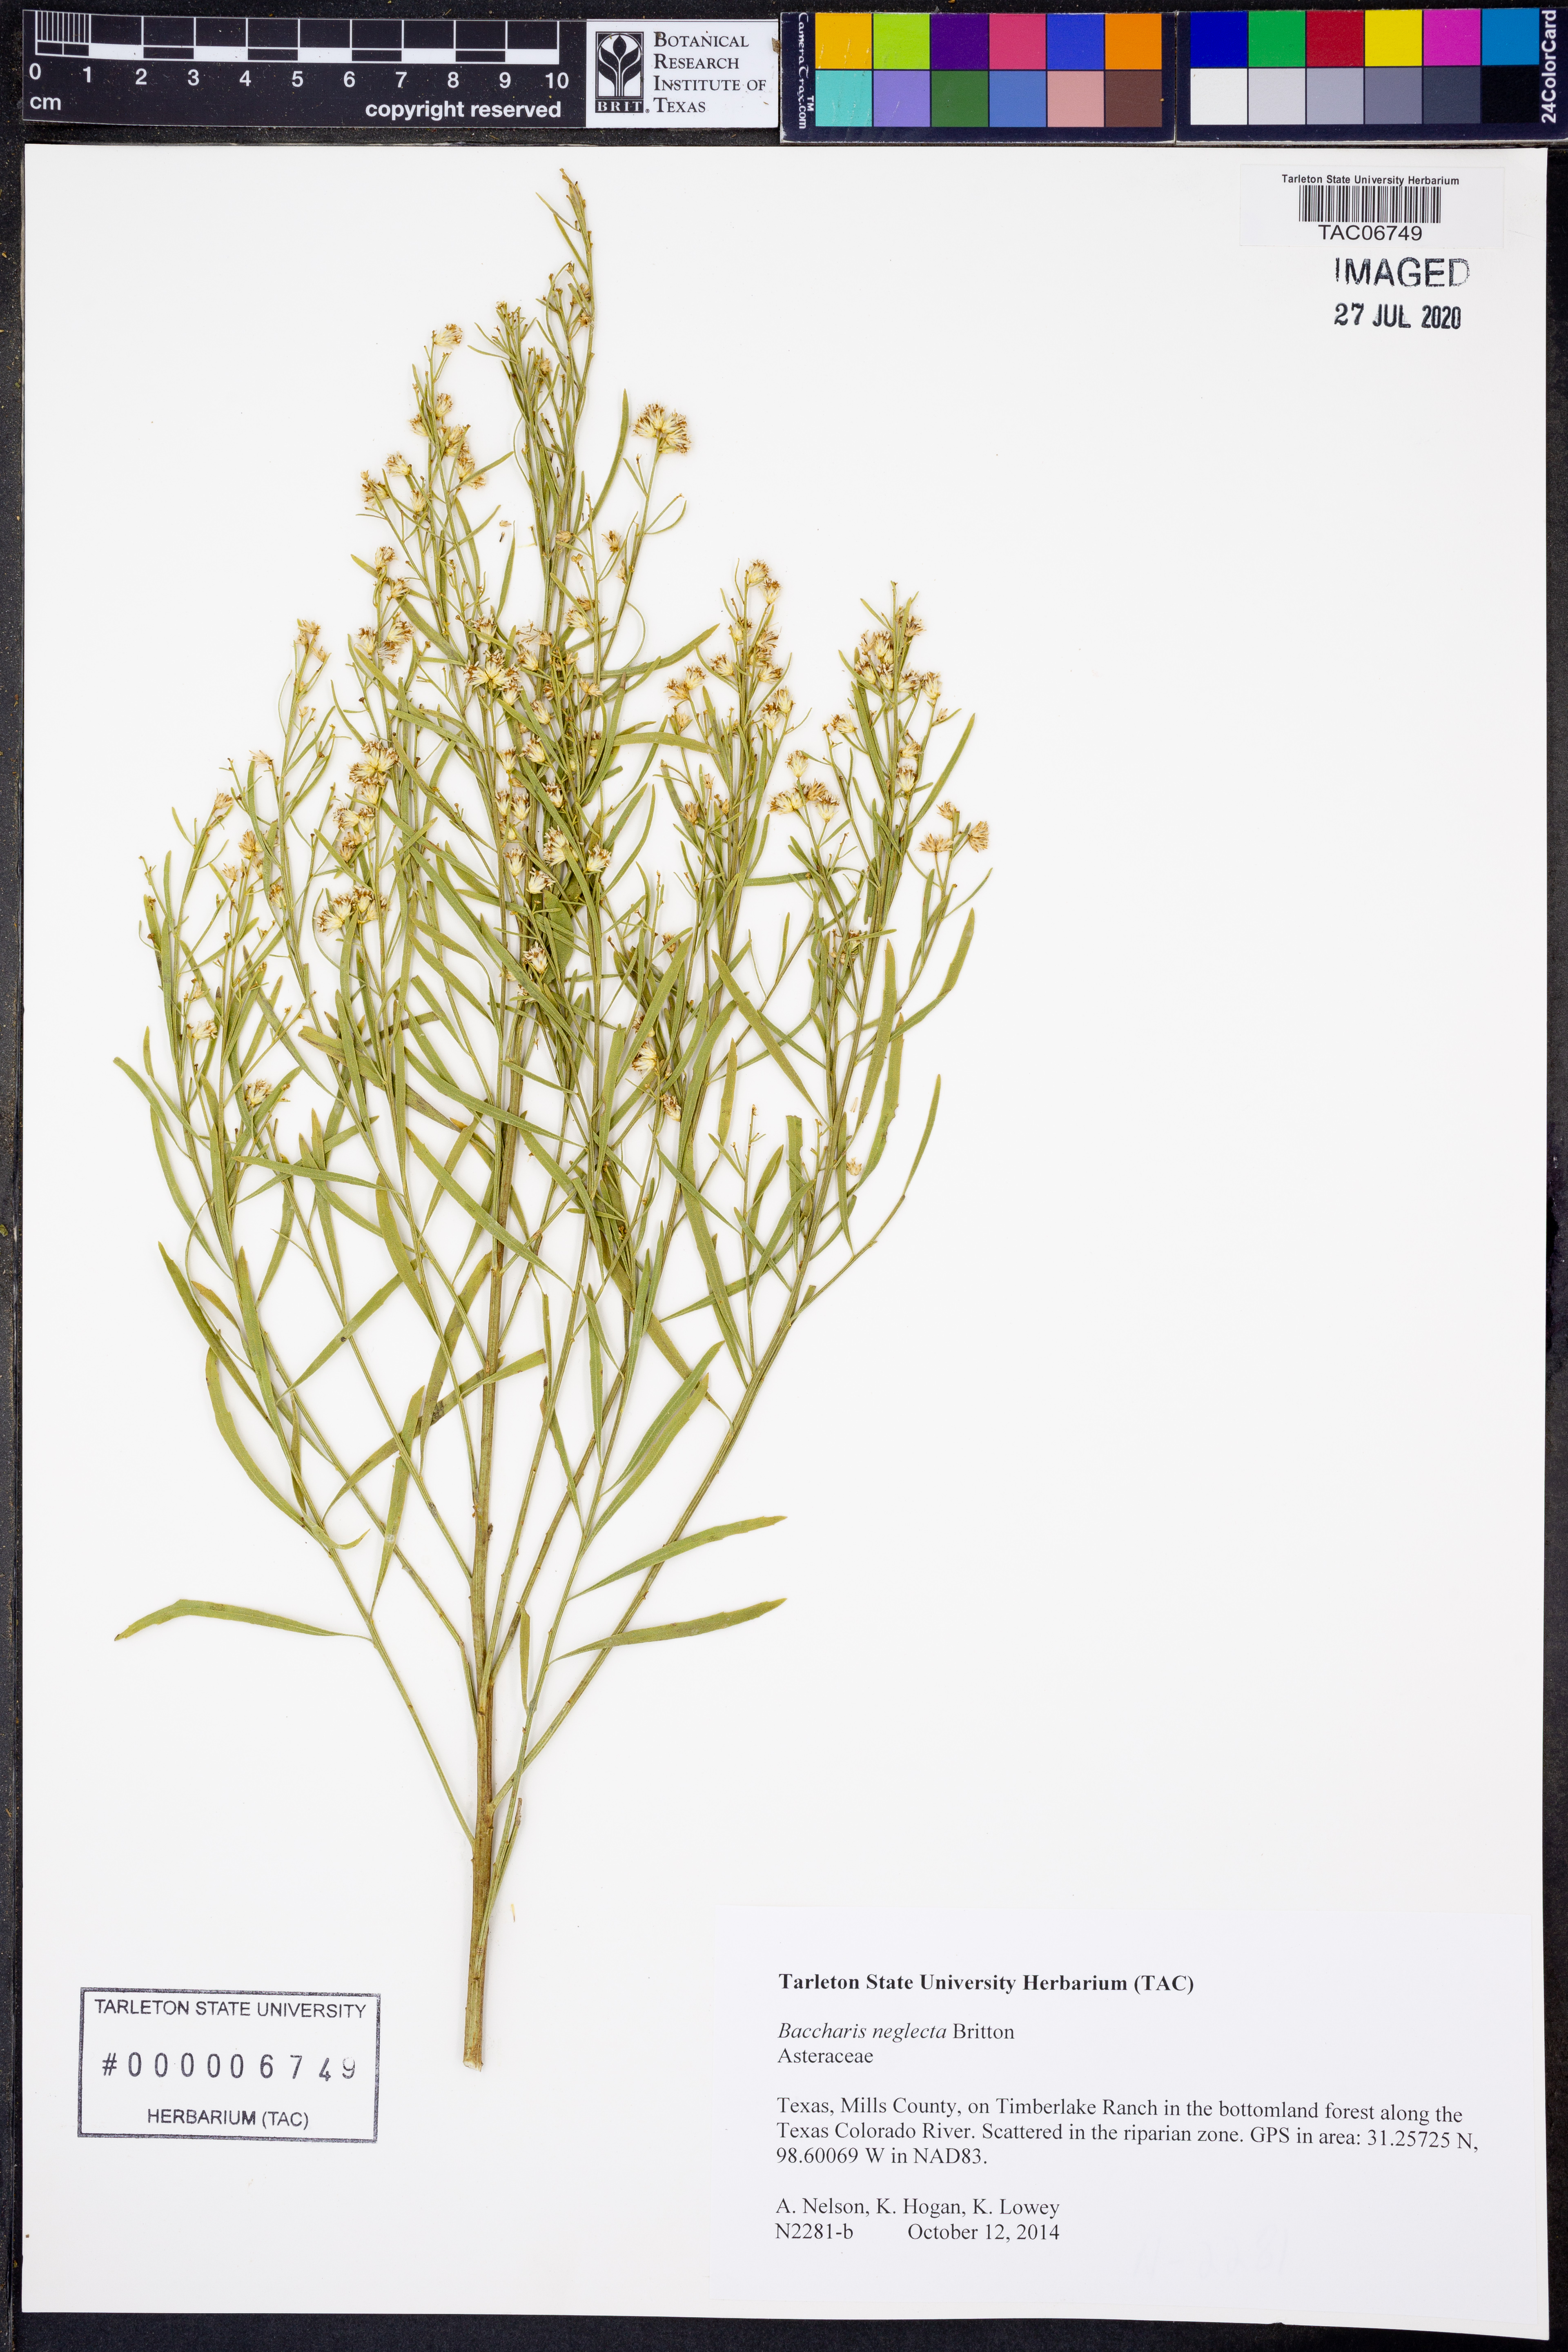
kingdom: Plantae
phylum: Tracheophyta
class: Magnoliopsida
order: Asterales
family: Asteraceae
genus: Baccharis
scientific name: Baccharis neglecta
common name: Roosevelt-weed
